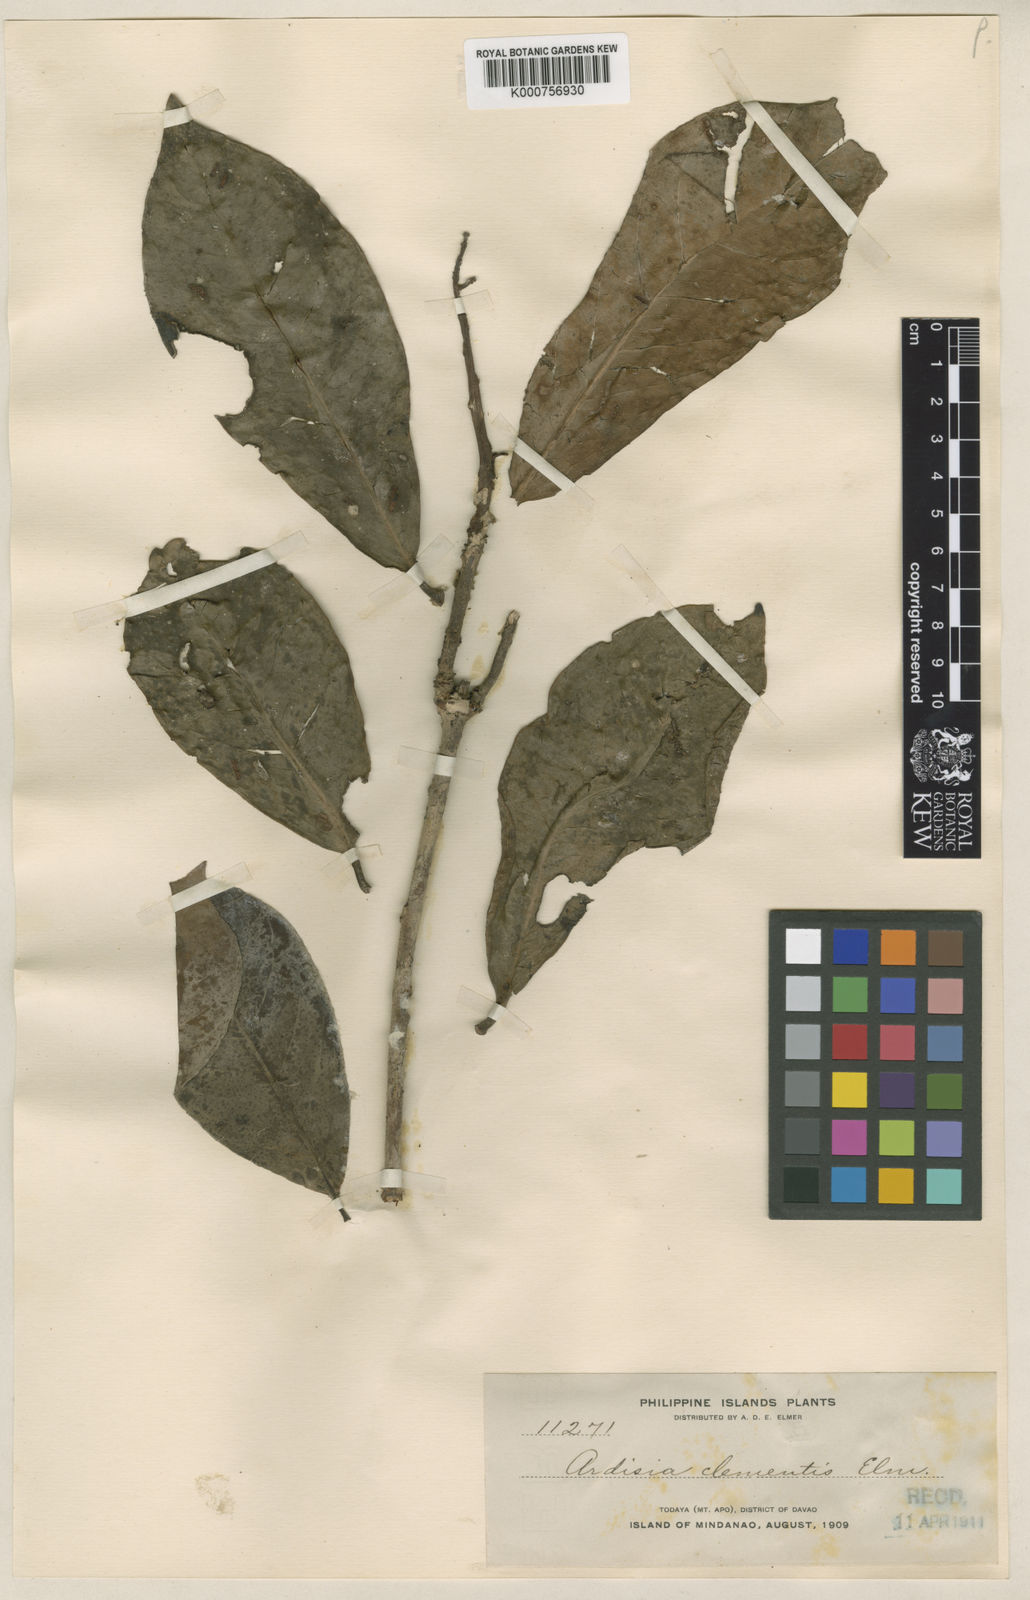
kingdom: Plantae
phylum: Tracheophyta
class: Magnoliopsida
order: Ericales
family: Primulaceae
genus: Ardisia
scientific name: Ardisia purpurea
